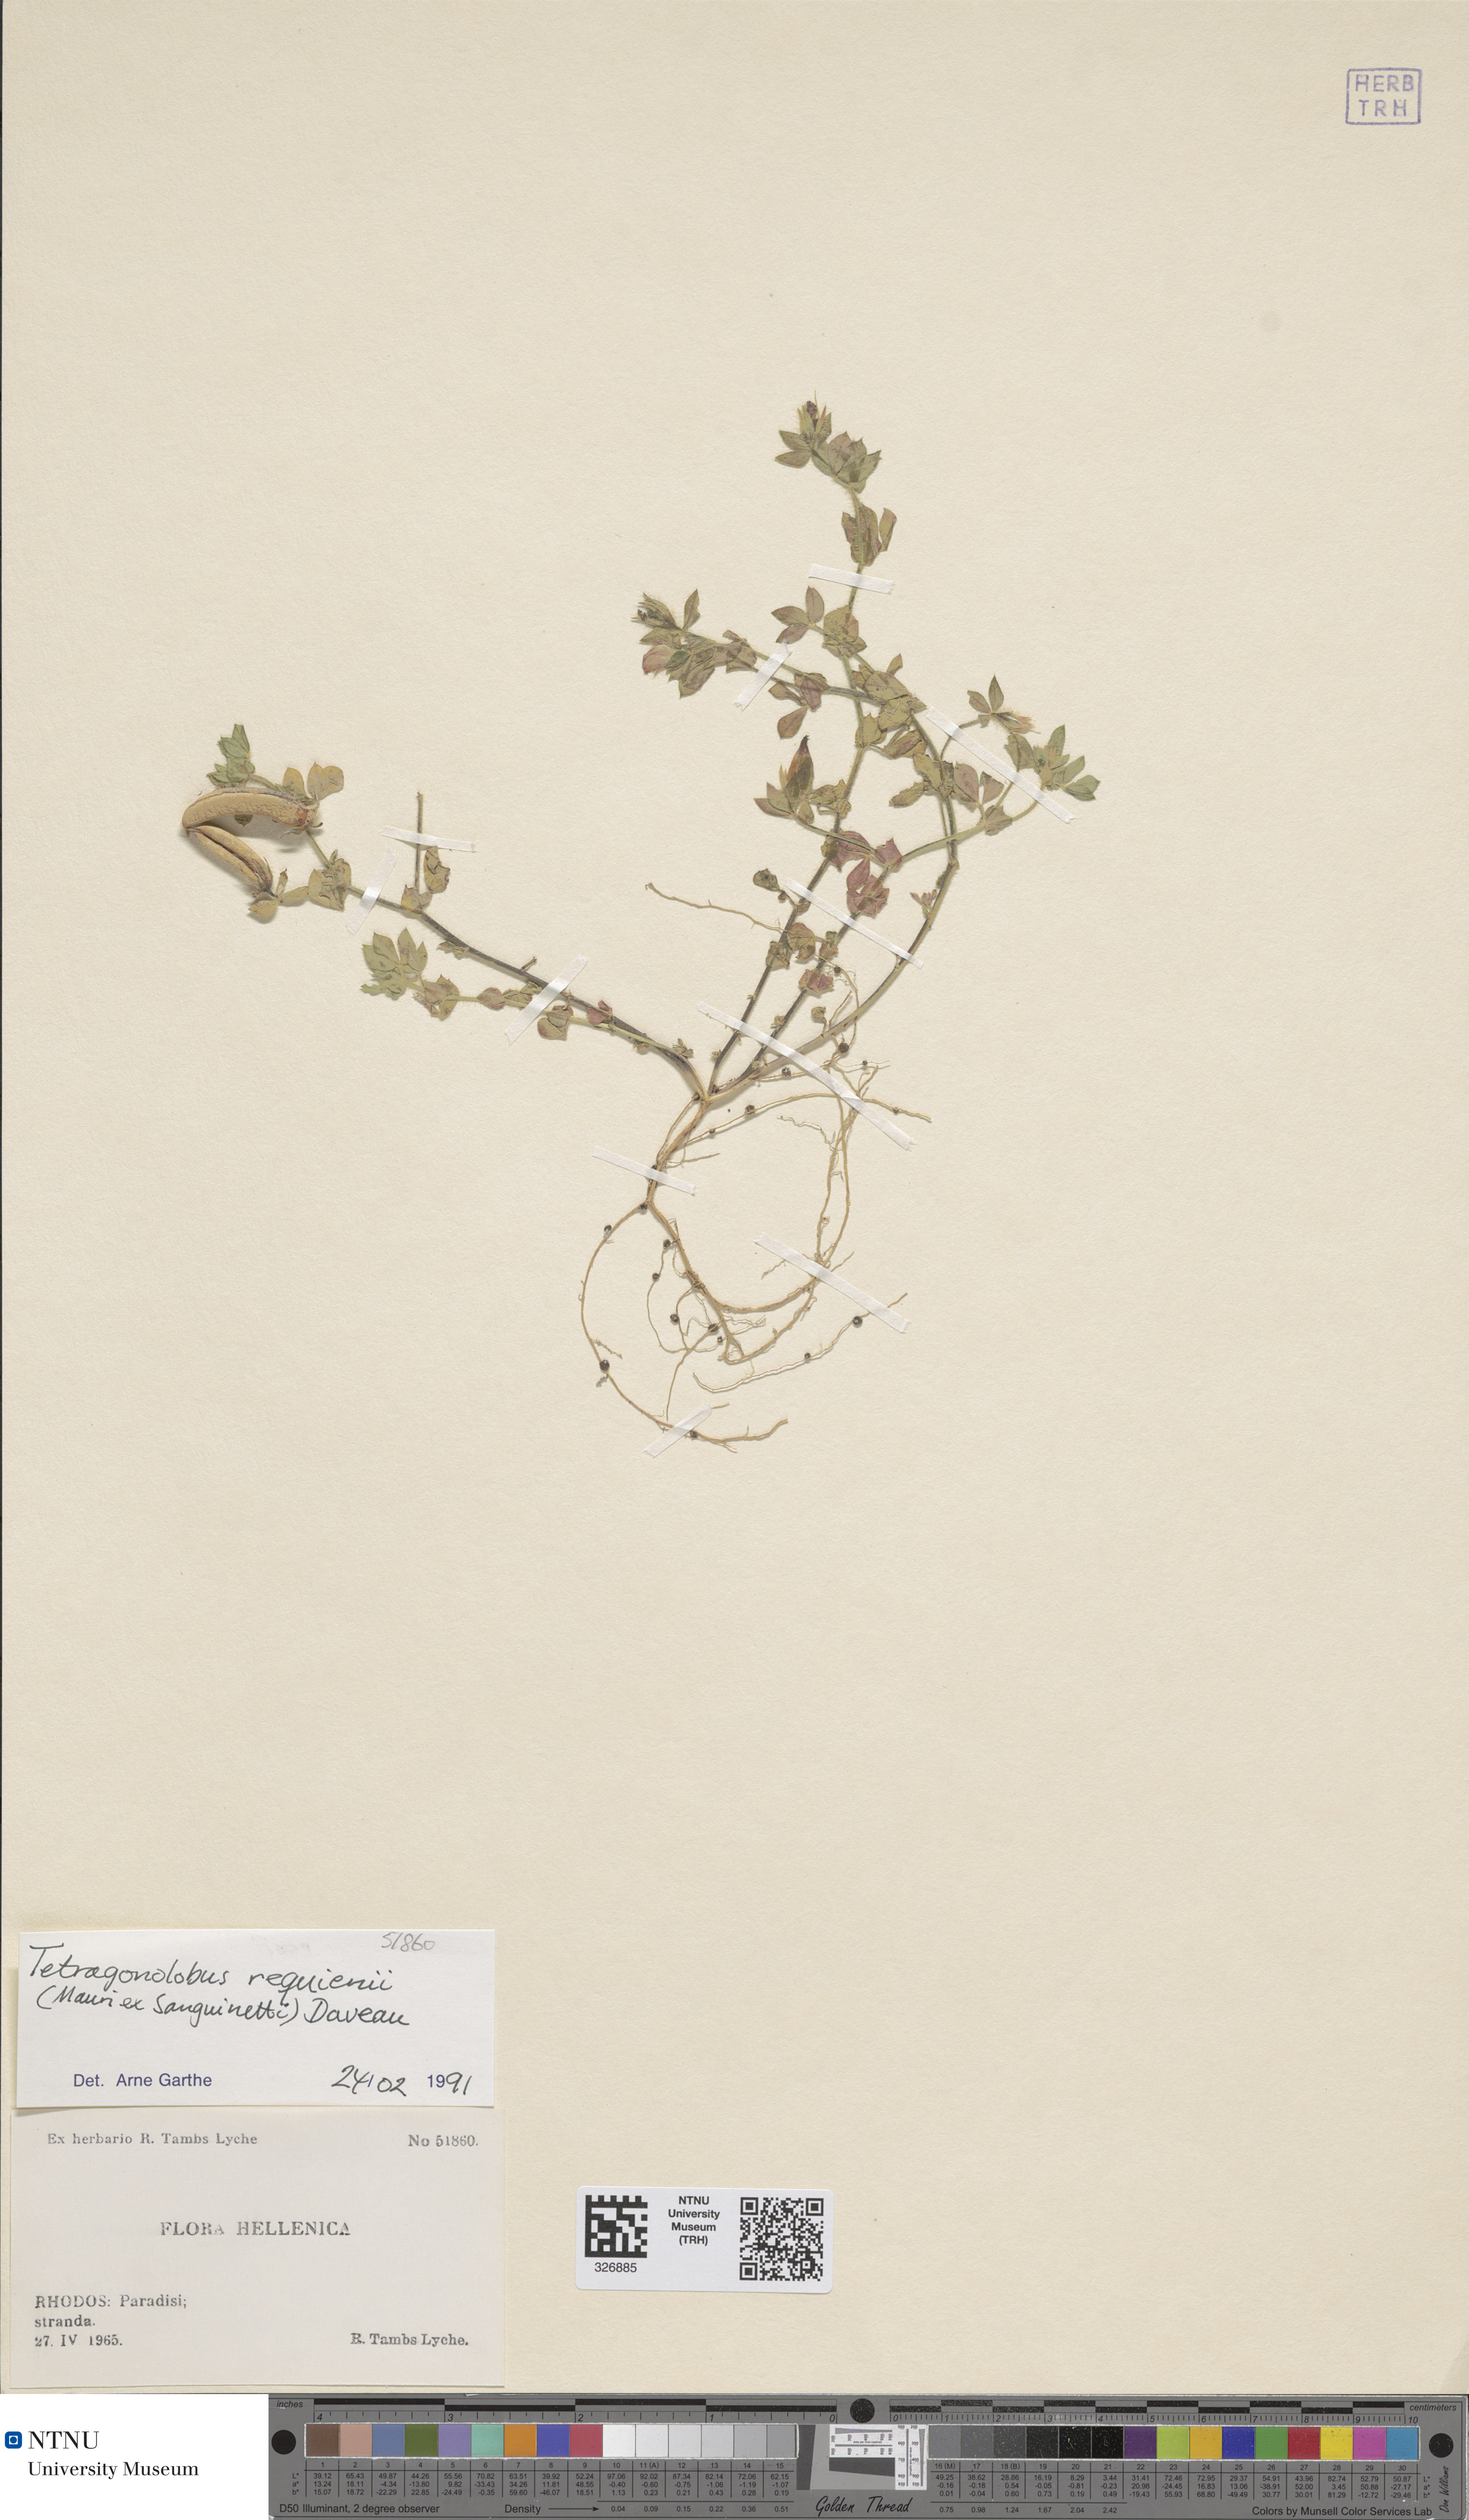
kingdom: Plantae
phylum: Tracheophyta
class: Magnoliopsida
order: Fabales
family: Fabaceae
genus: Lotus
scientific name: Lotus requienii
